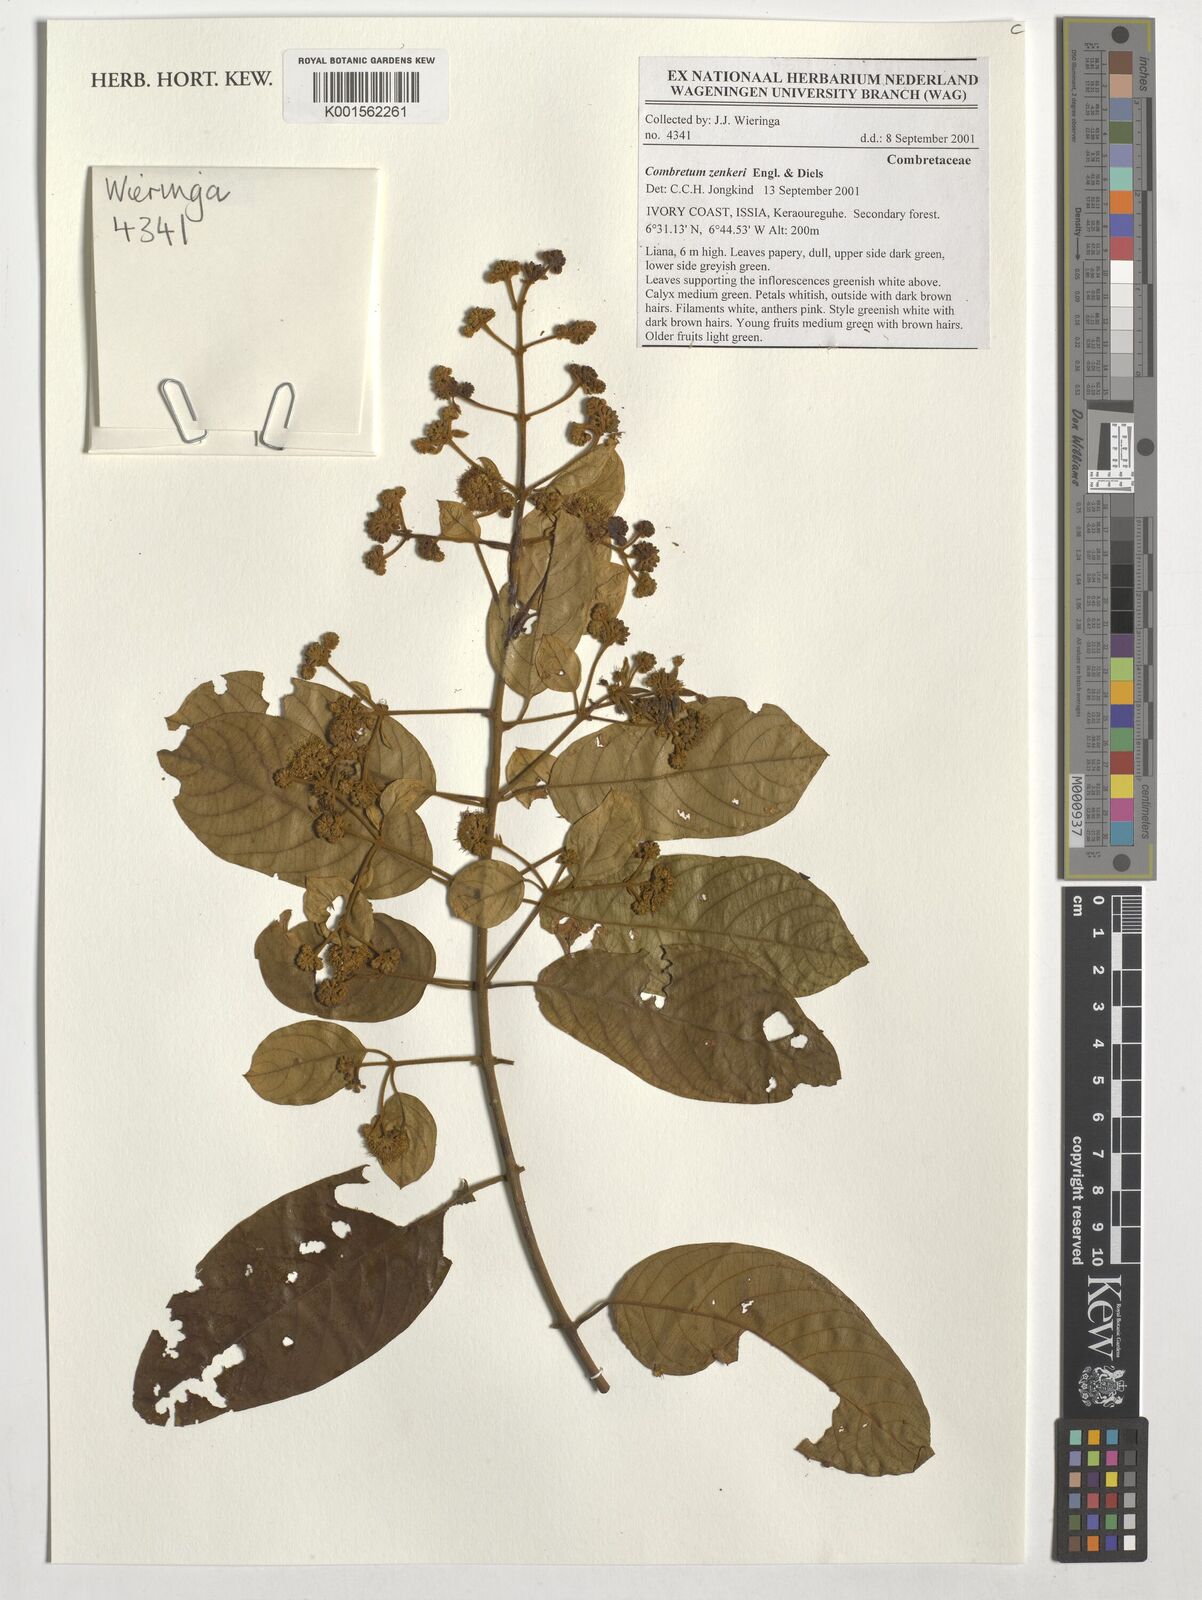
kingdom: Plantae
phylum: Tracheophyta
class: Magnoliopsida
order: Myrtales
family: Combretaceae
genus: Combretum
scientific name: Combretum zenkeri
